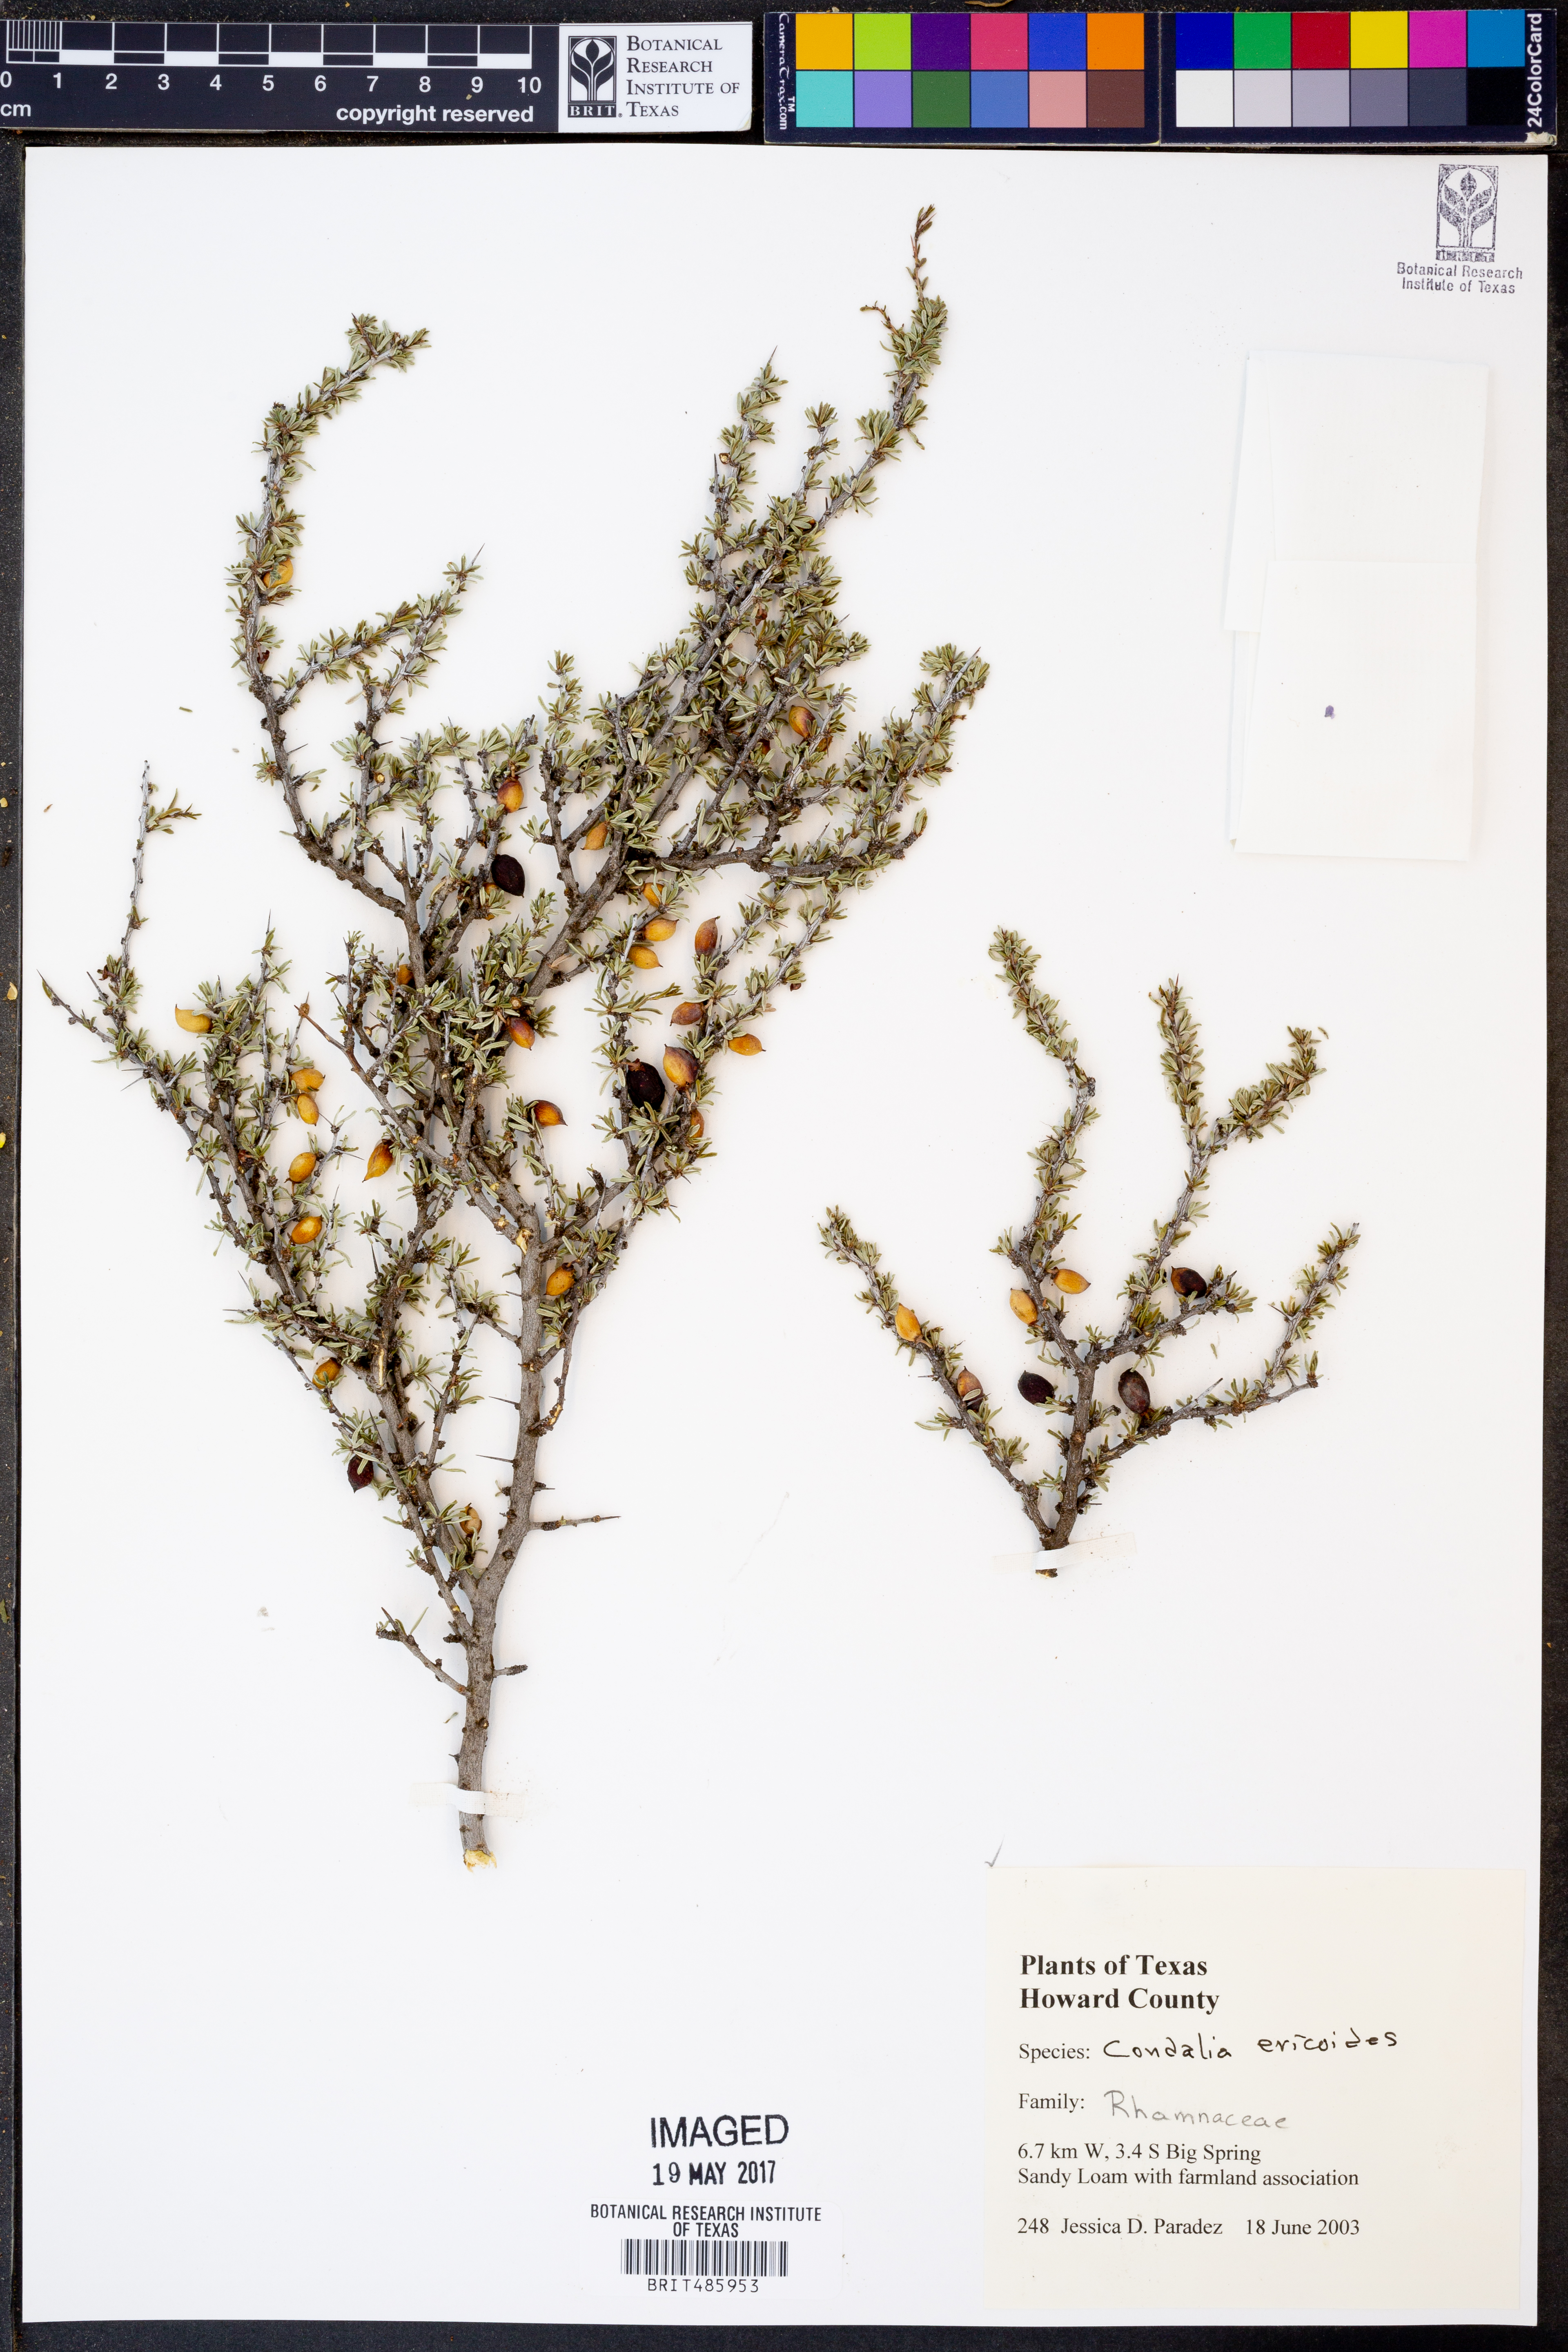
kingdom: Plantae
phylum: Tracheophyta
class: Magnoliopsida
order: Rosales
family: Rhamnaceae
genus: Condalia
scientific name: Condalia ericoides
